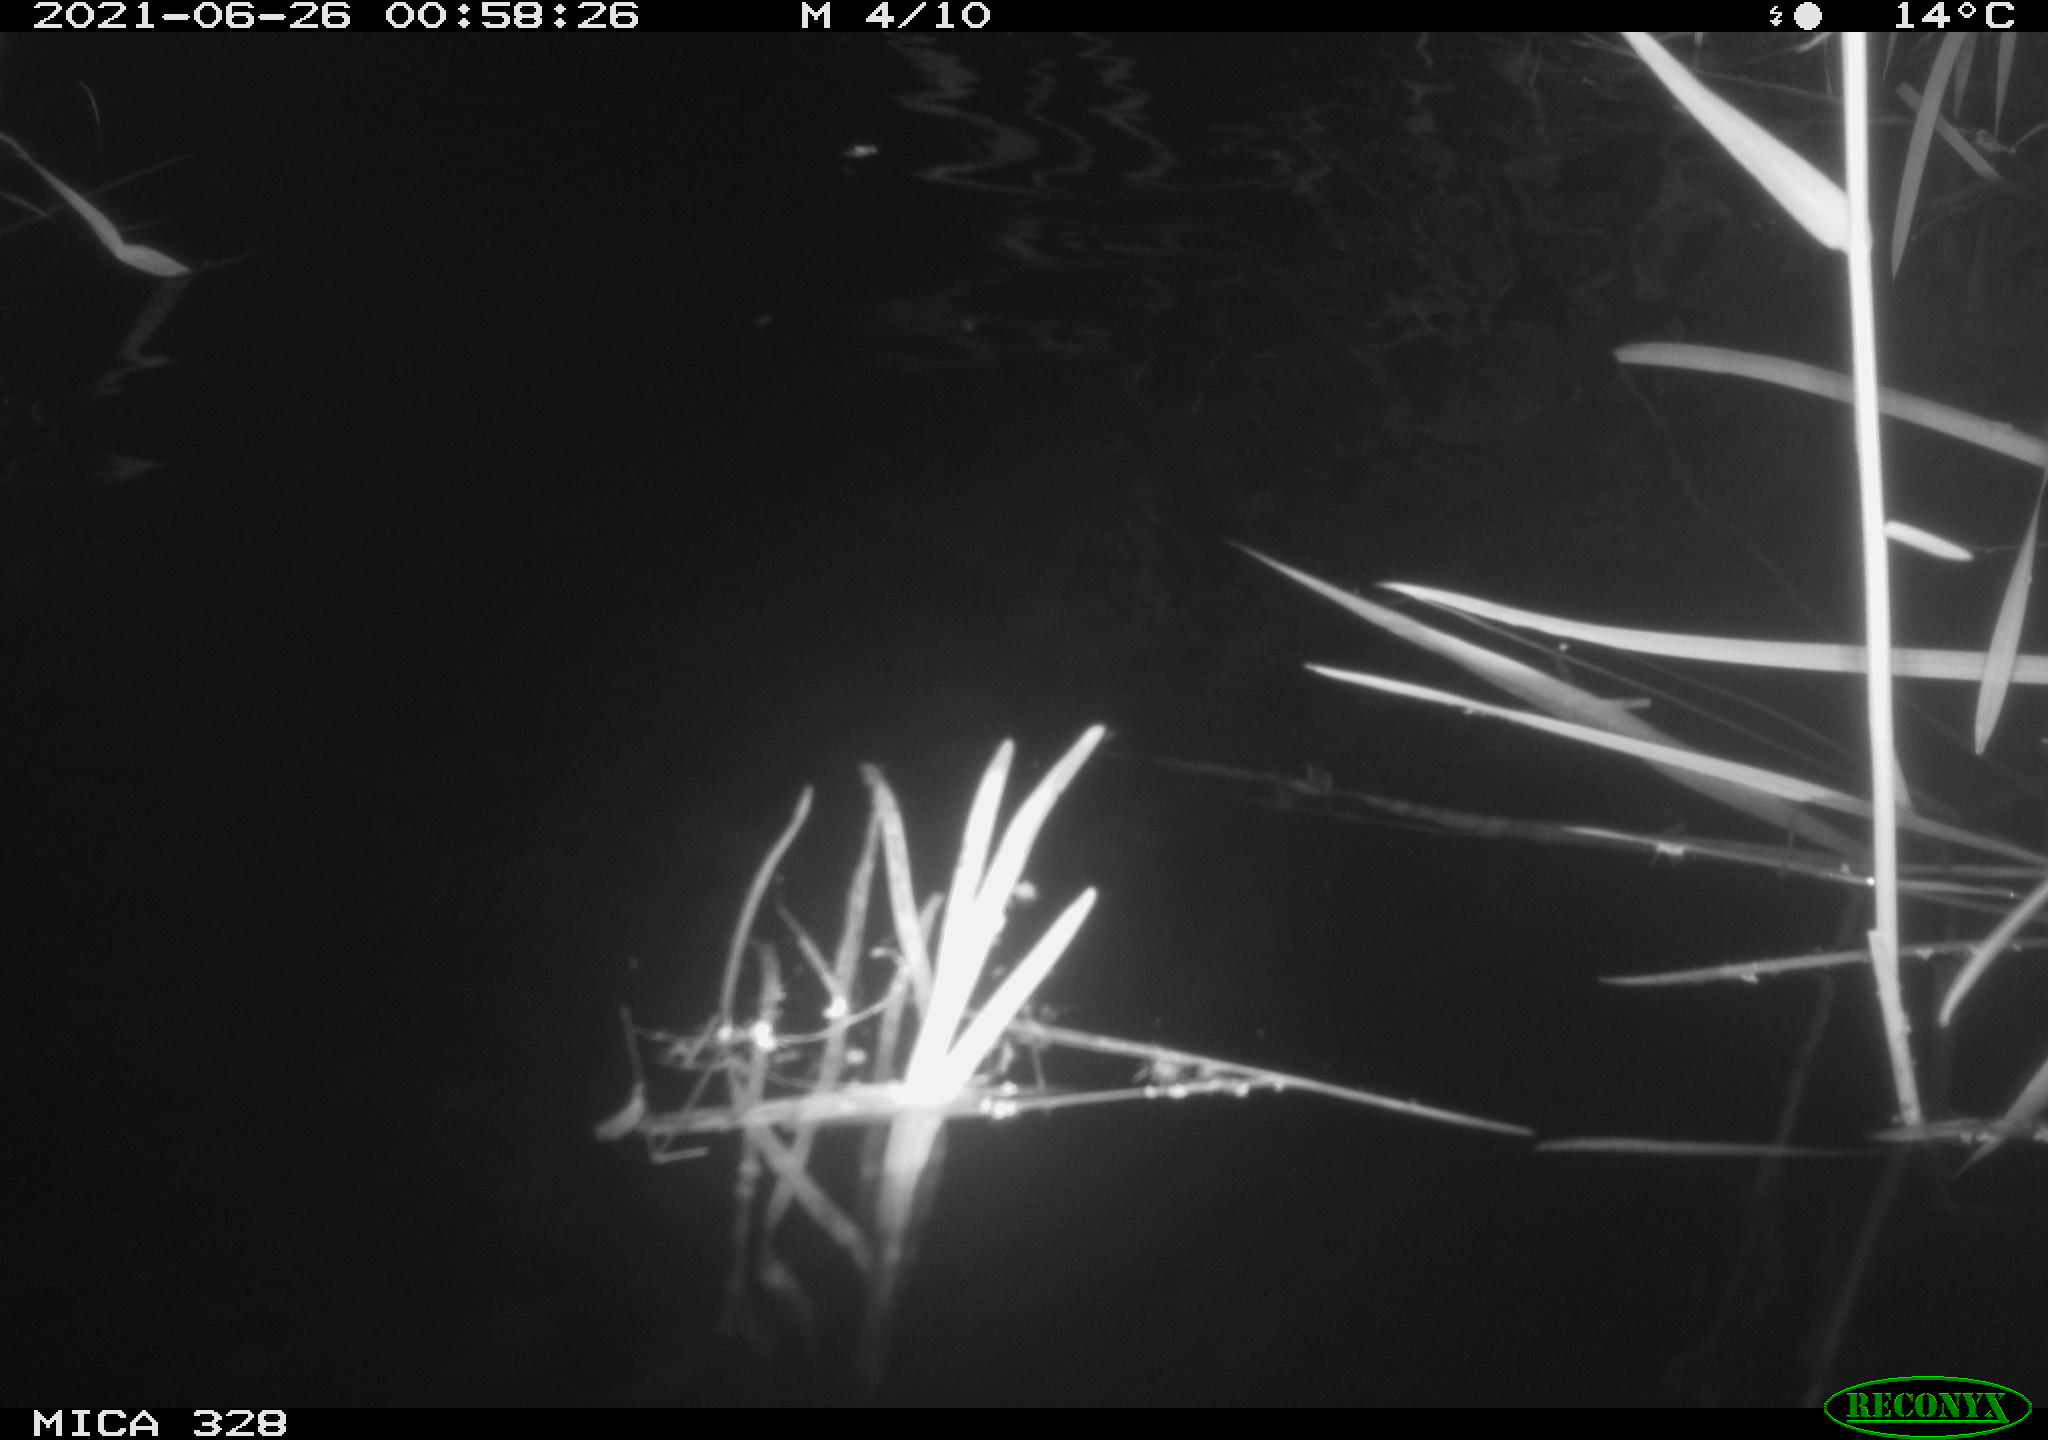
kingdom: Animalia
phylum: Chordata
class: Mammalia
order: Rodentia
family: Cricetidae
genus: Ondatra
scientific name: Ondatra zibethicus
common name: Muskrat
